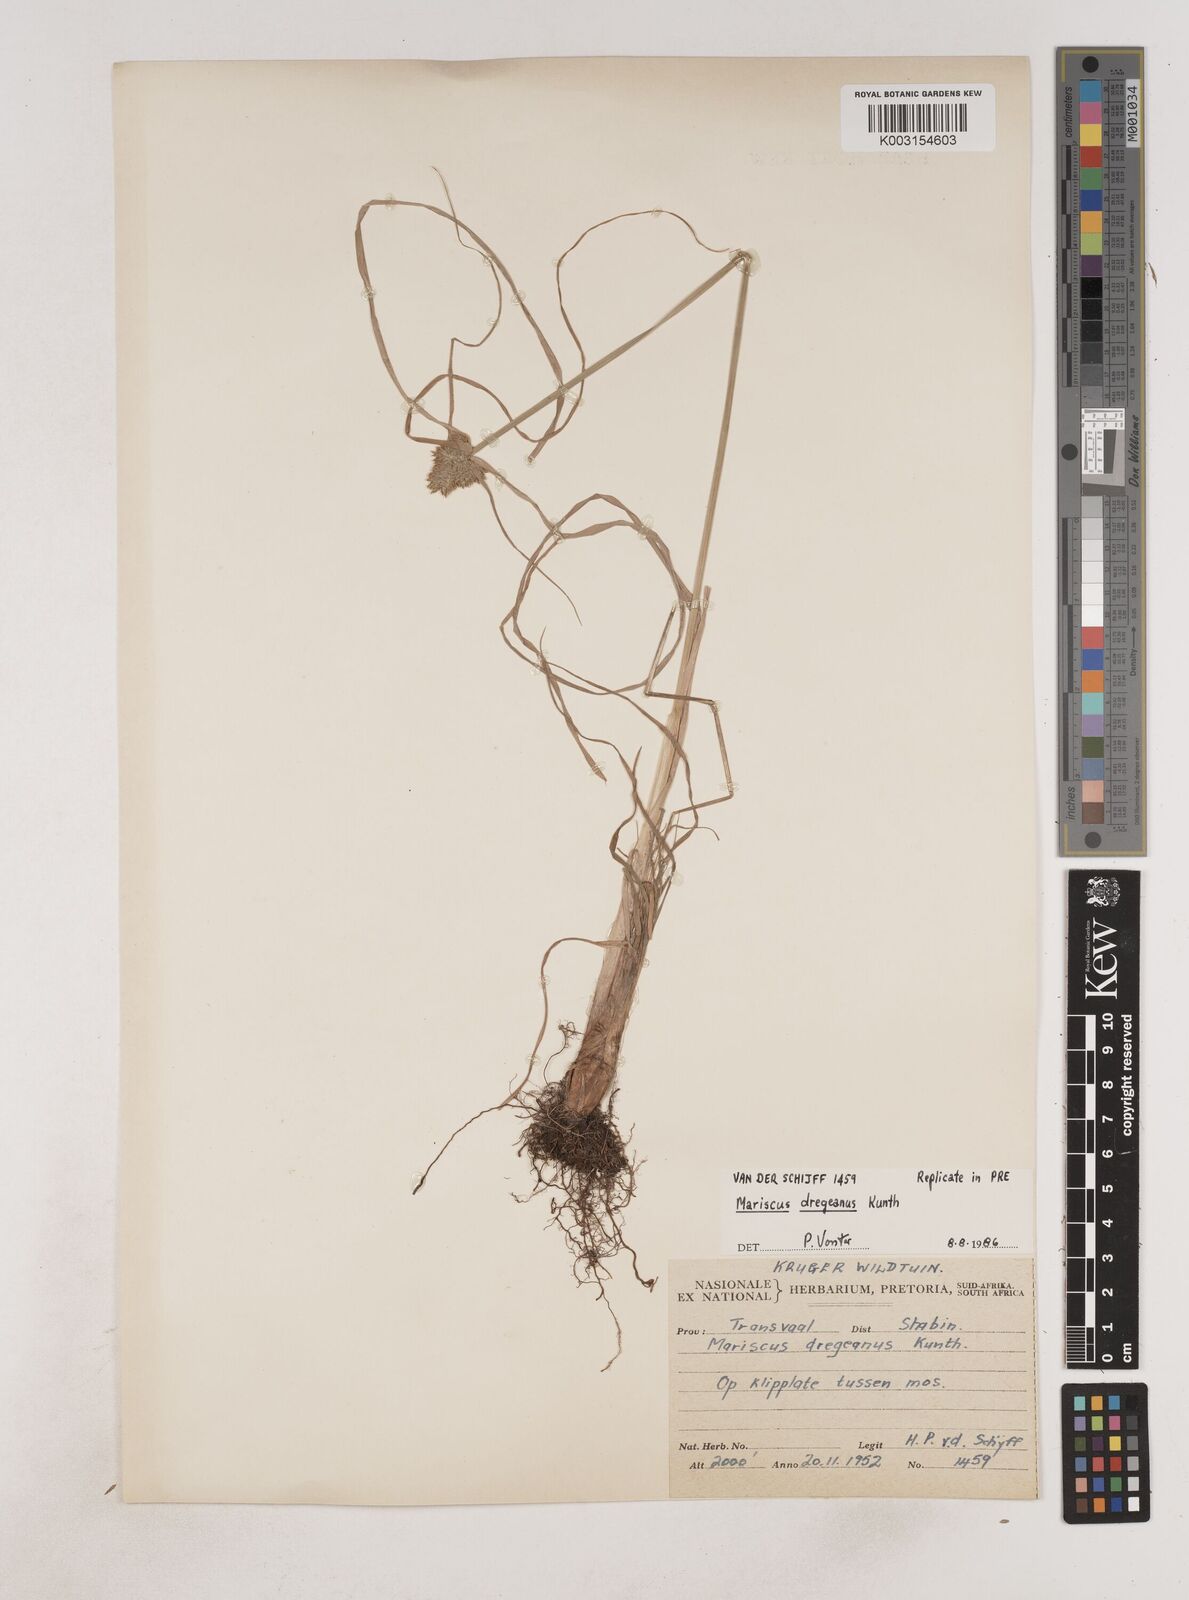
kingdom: Plantae
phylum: Tracheophyta
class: Liliopsida
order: Poales
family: Cyperaceae
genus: Cyperus
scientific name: Cyperus dubius
